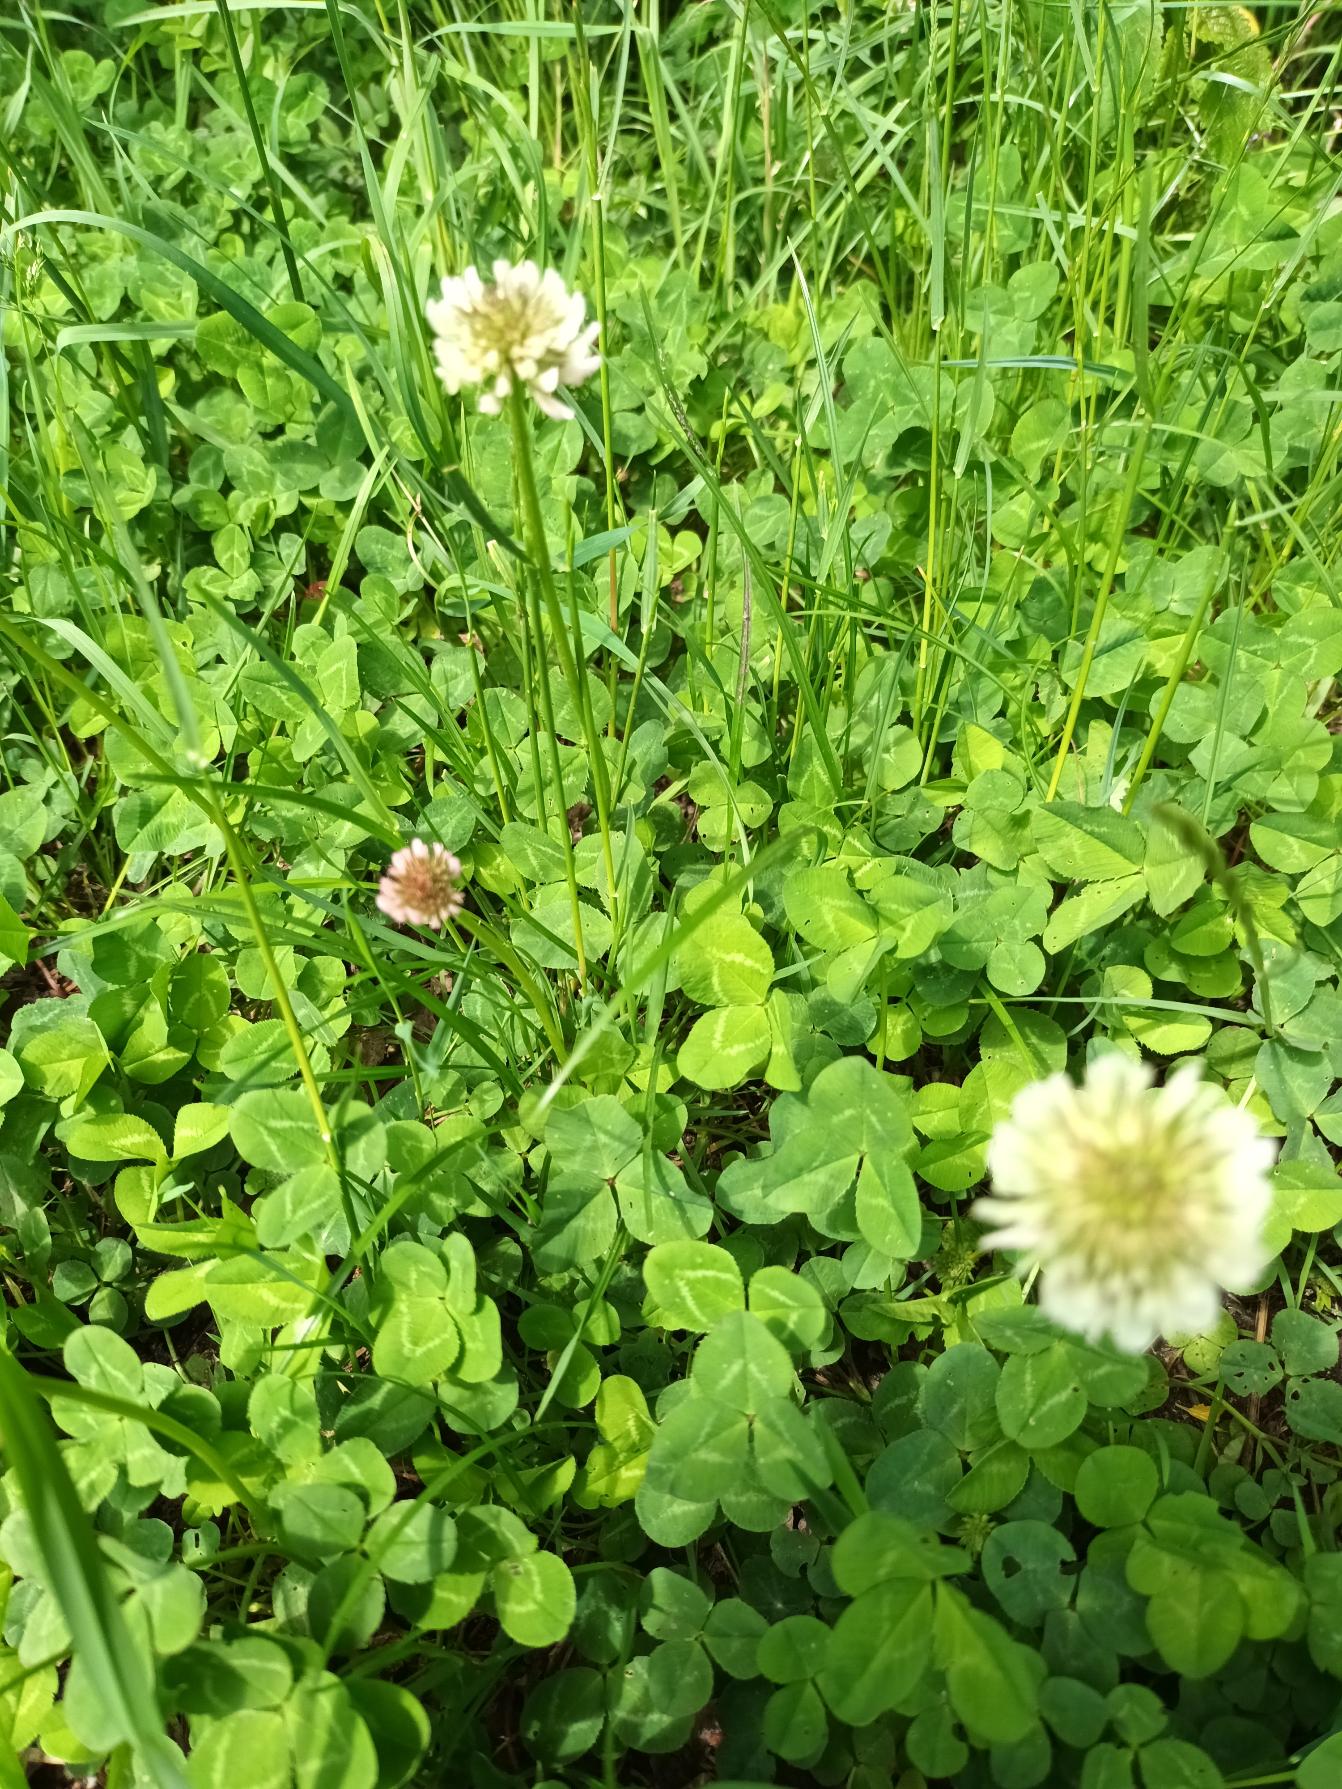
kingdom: Plantae
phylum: Tracheophyta
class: Magnoliopsida
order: Fabales
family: Fabaceae
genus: Trifolium
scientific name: Trifolium repens
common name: Hvid-kløver
